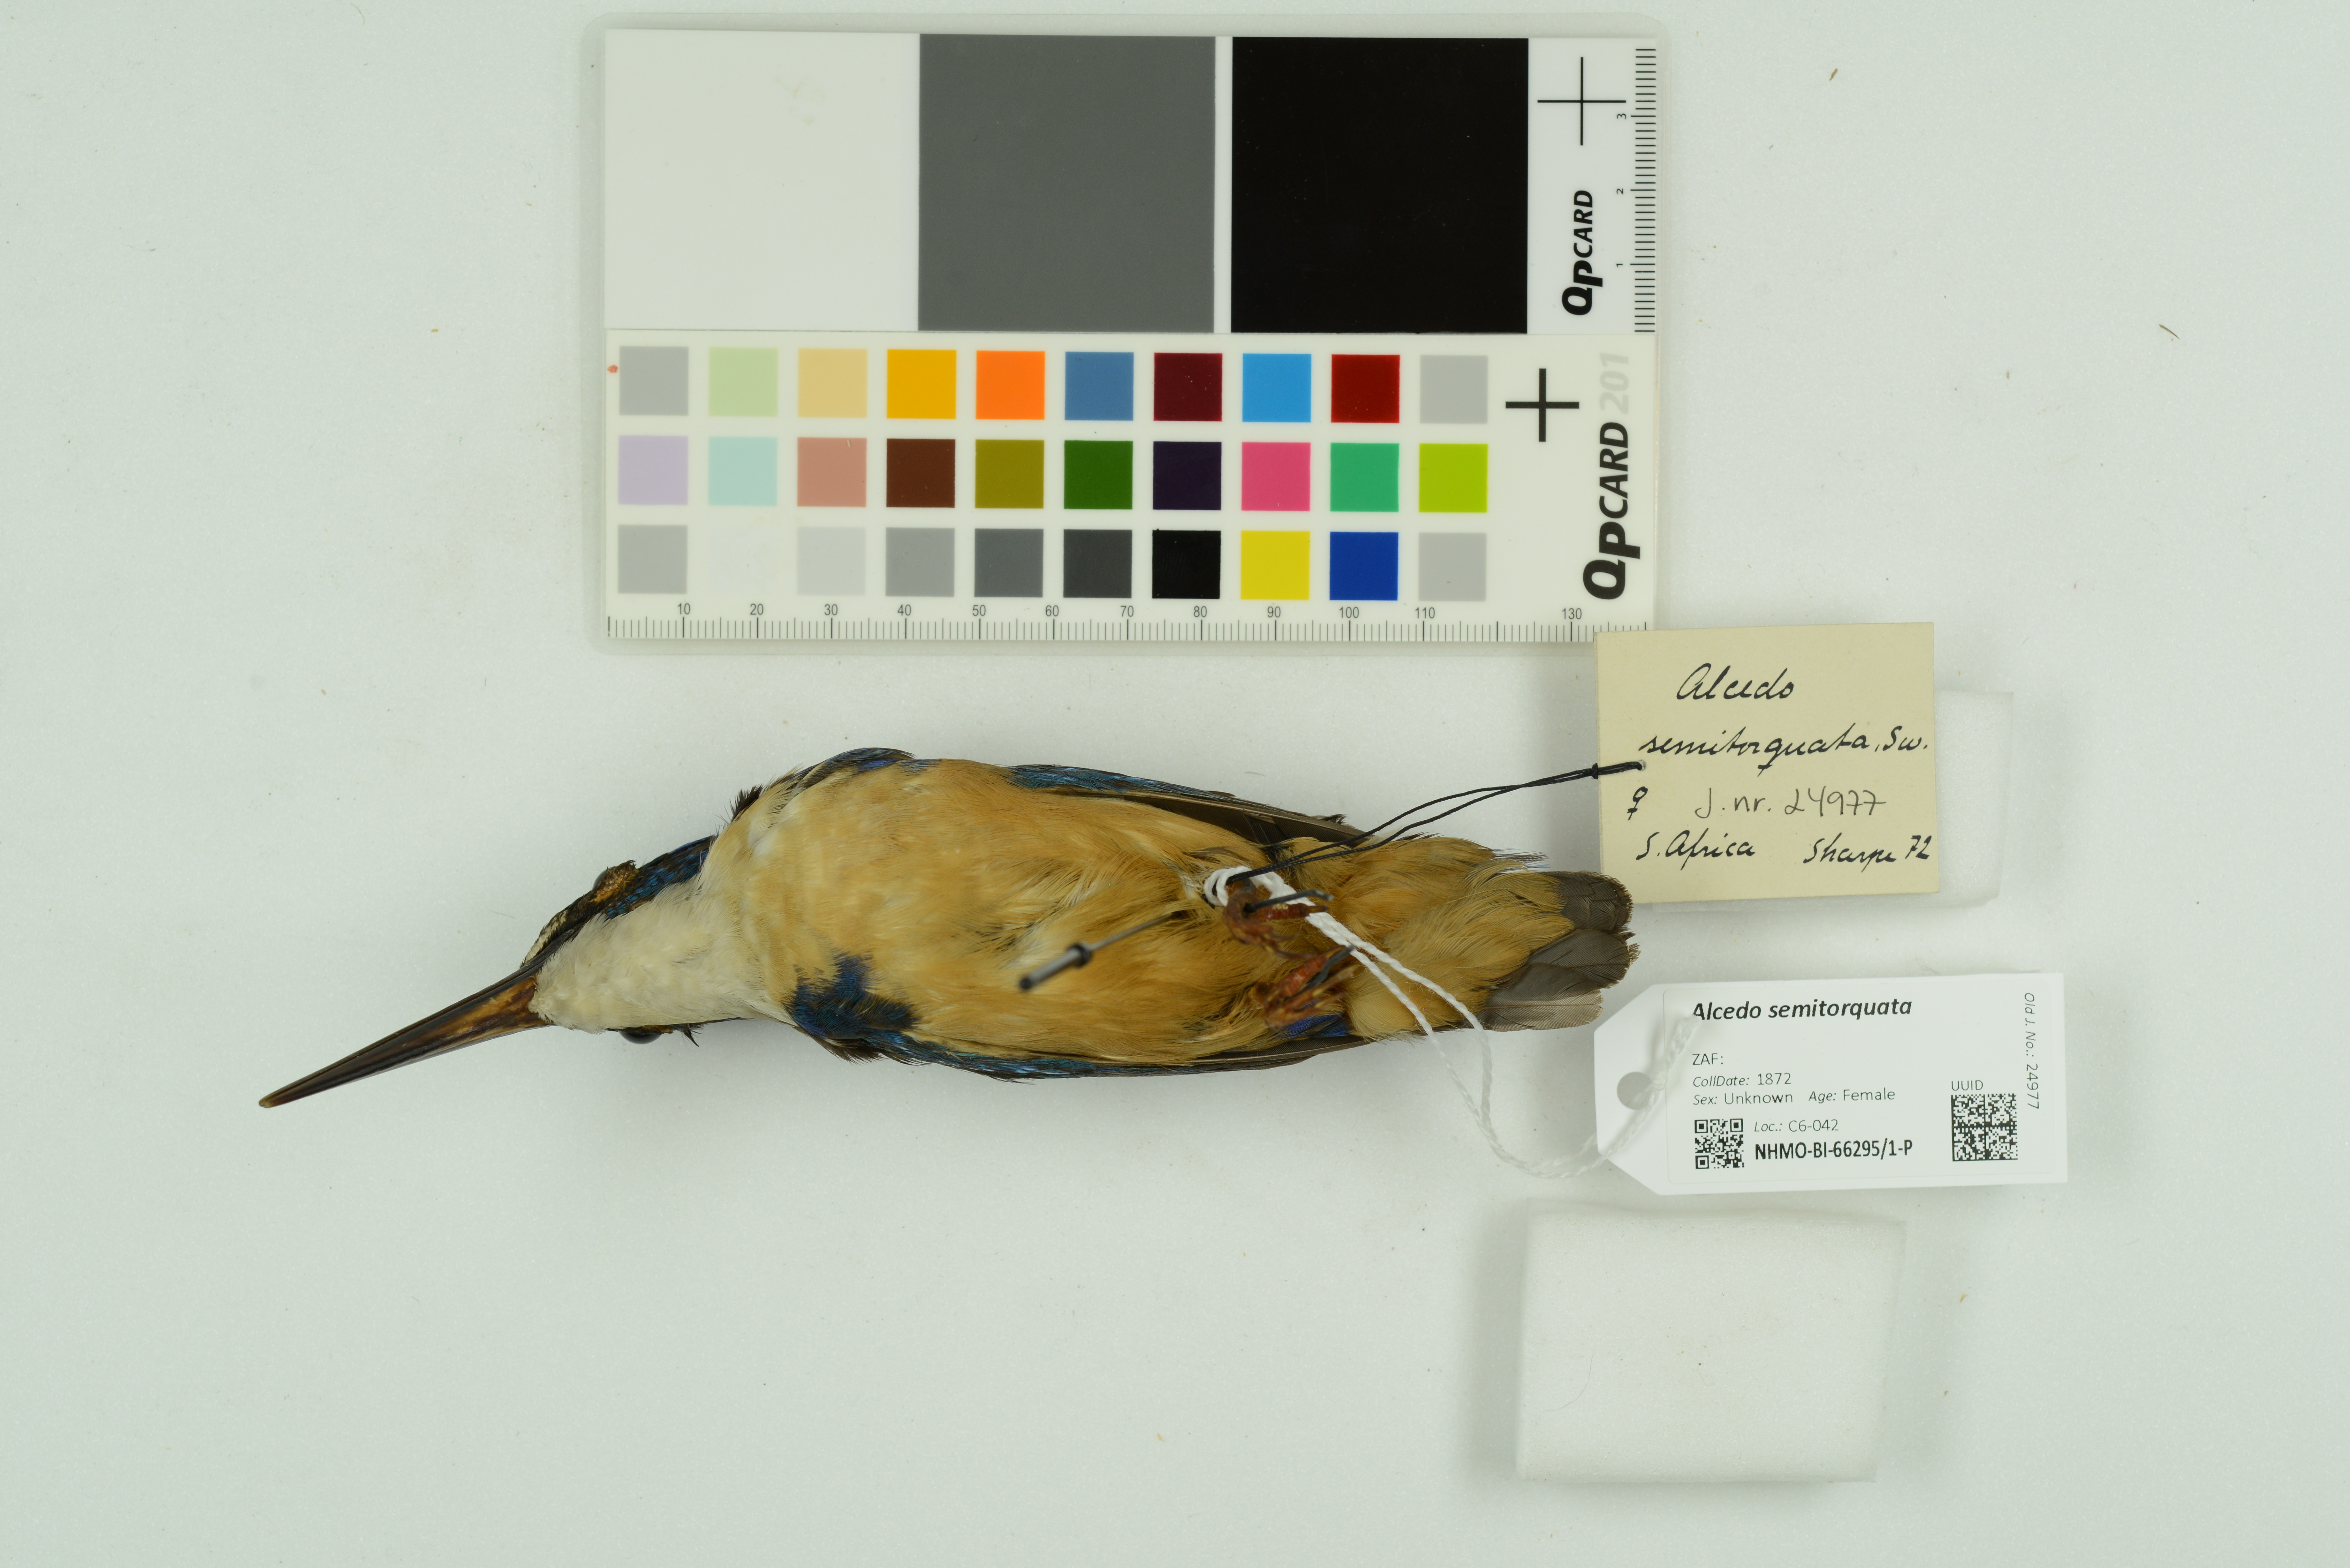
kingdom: Animalia
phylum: Chordata
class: Aves
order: Coraciiformes
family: Alcedinidae
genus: Alcedo
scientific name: Alcedo semitorquata
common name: Half-collared kingfisher
